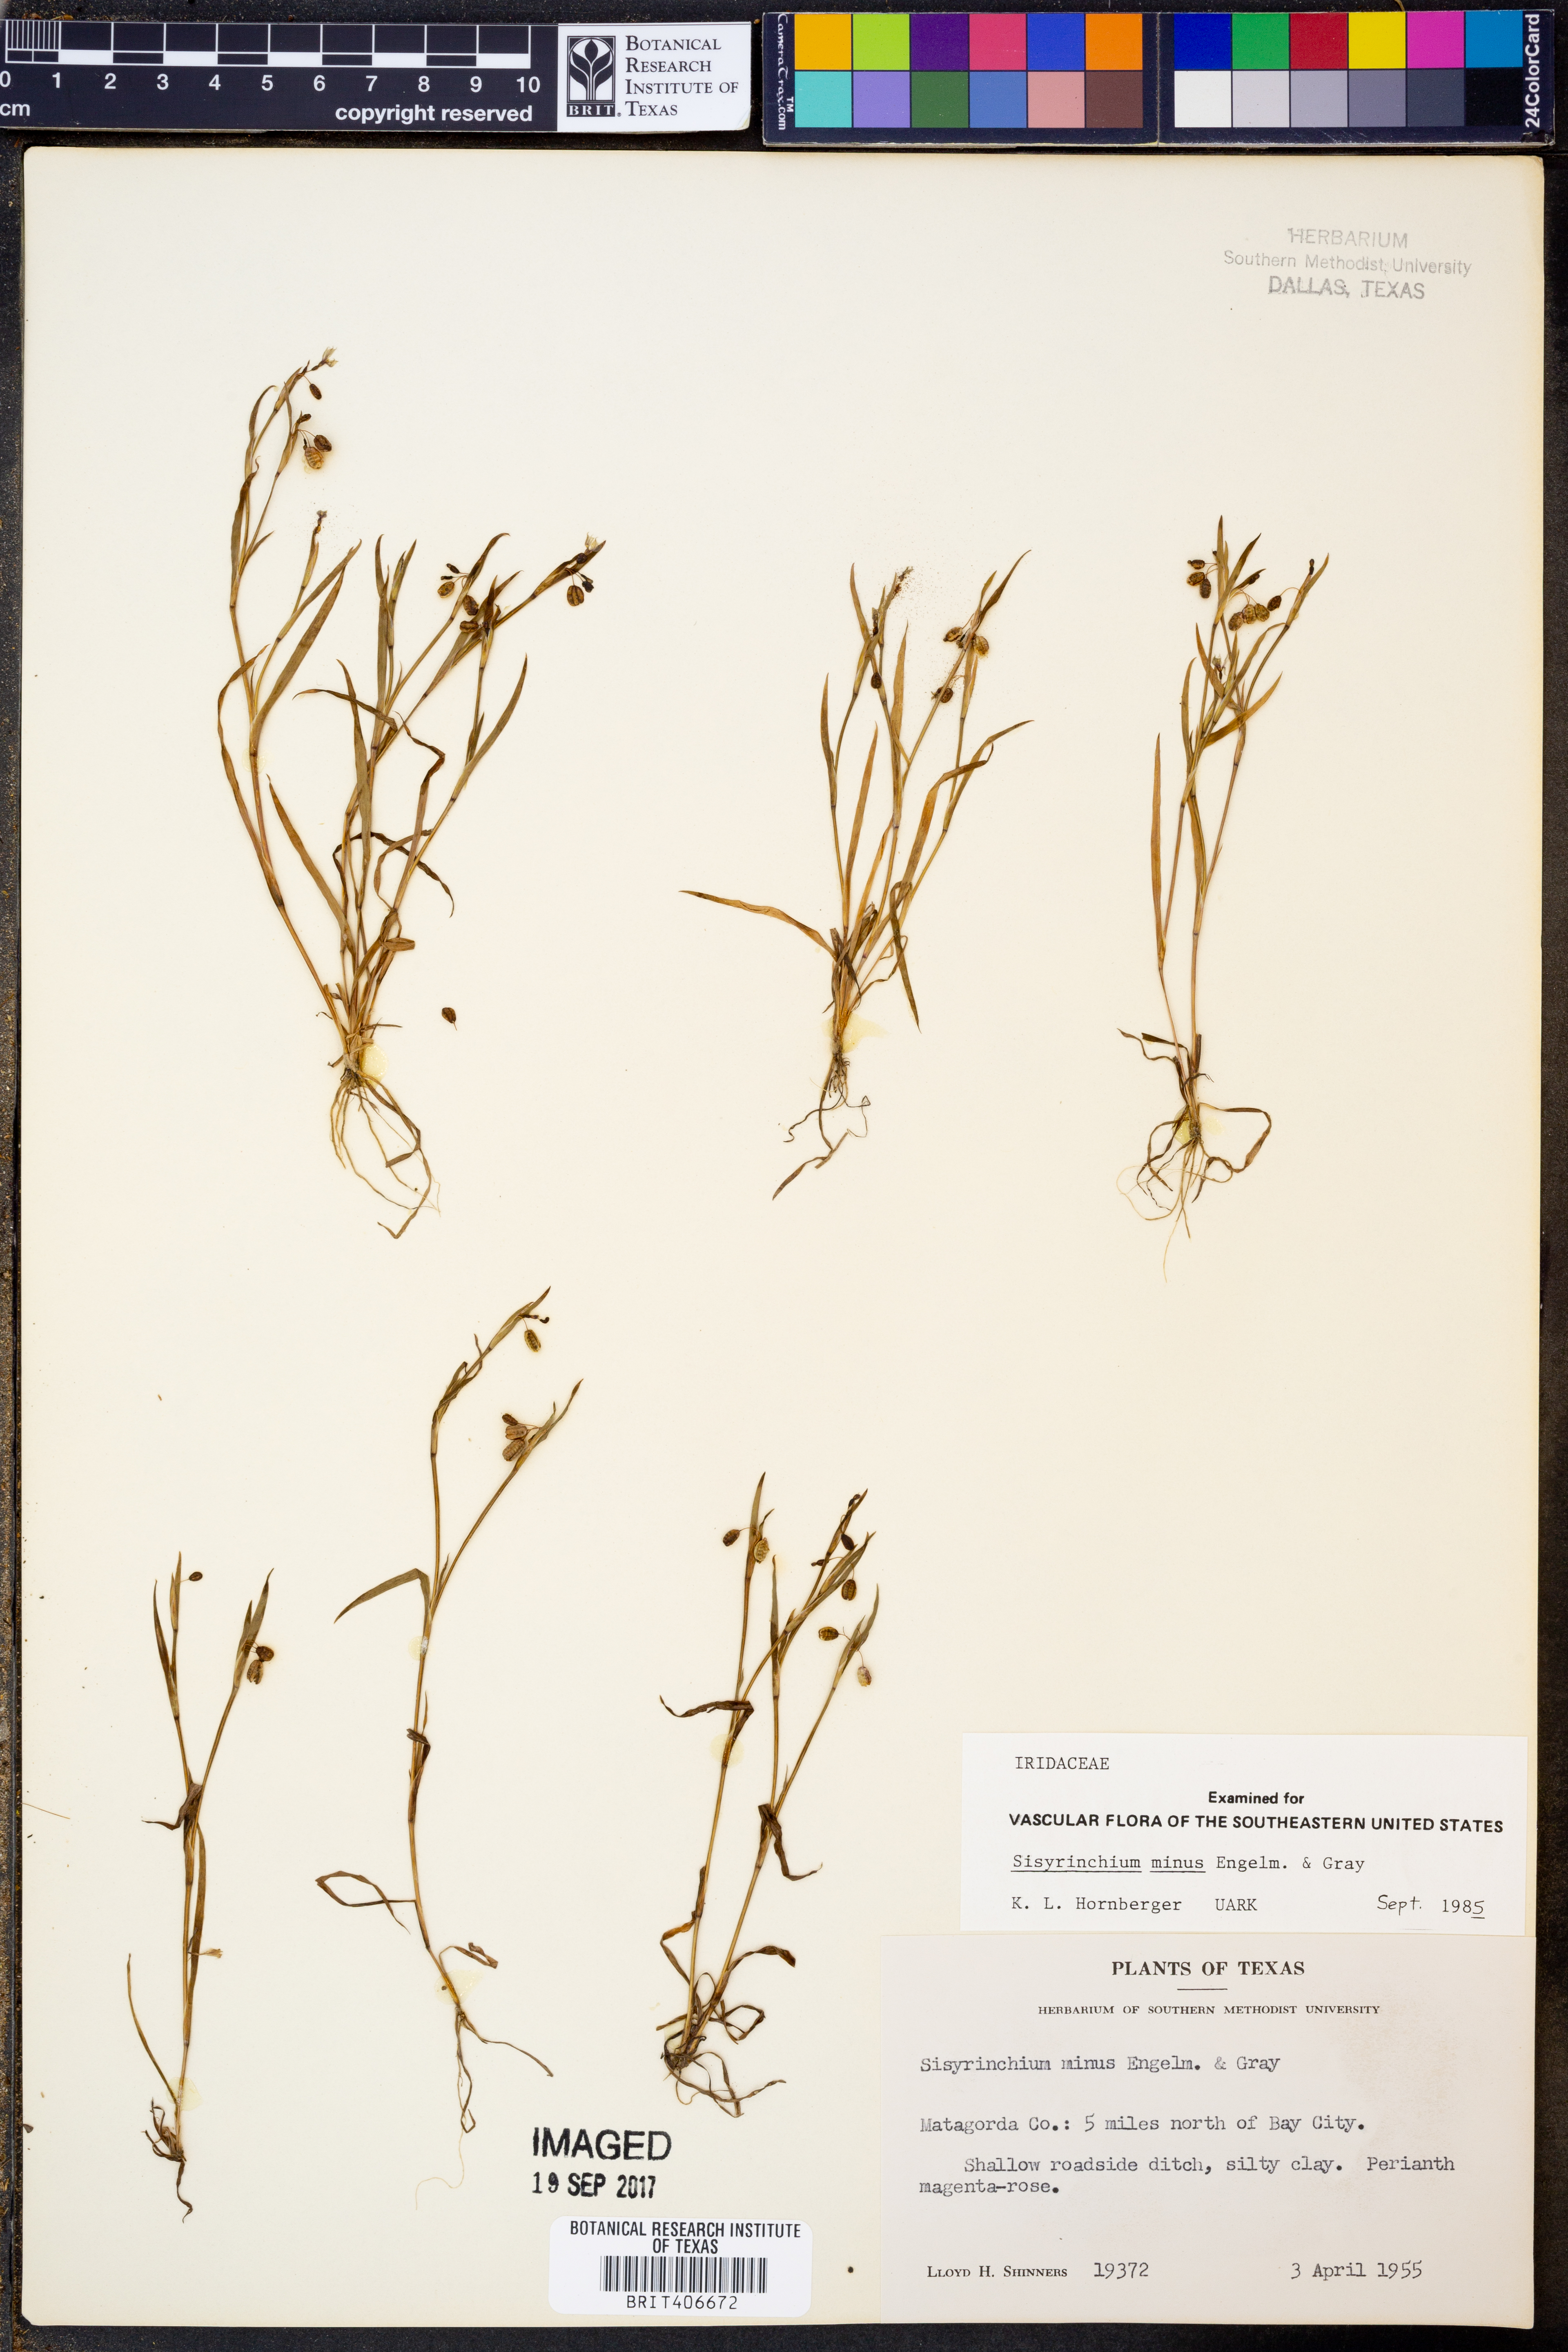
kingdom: Plantae
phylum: Tracheophyta
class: Liliopsida
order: Asparagales
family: Iridaceae
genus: Sisyrinchium
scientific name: Sisyrinchium minus
